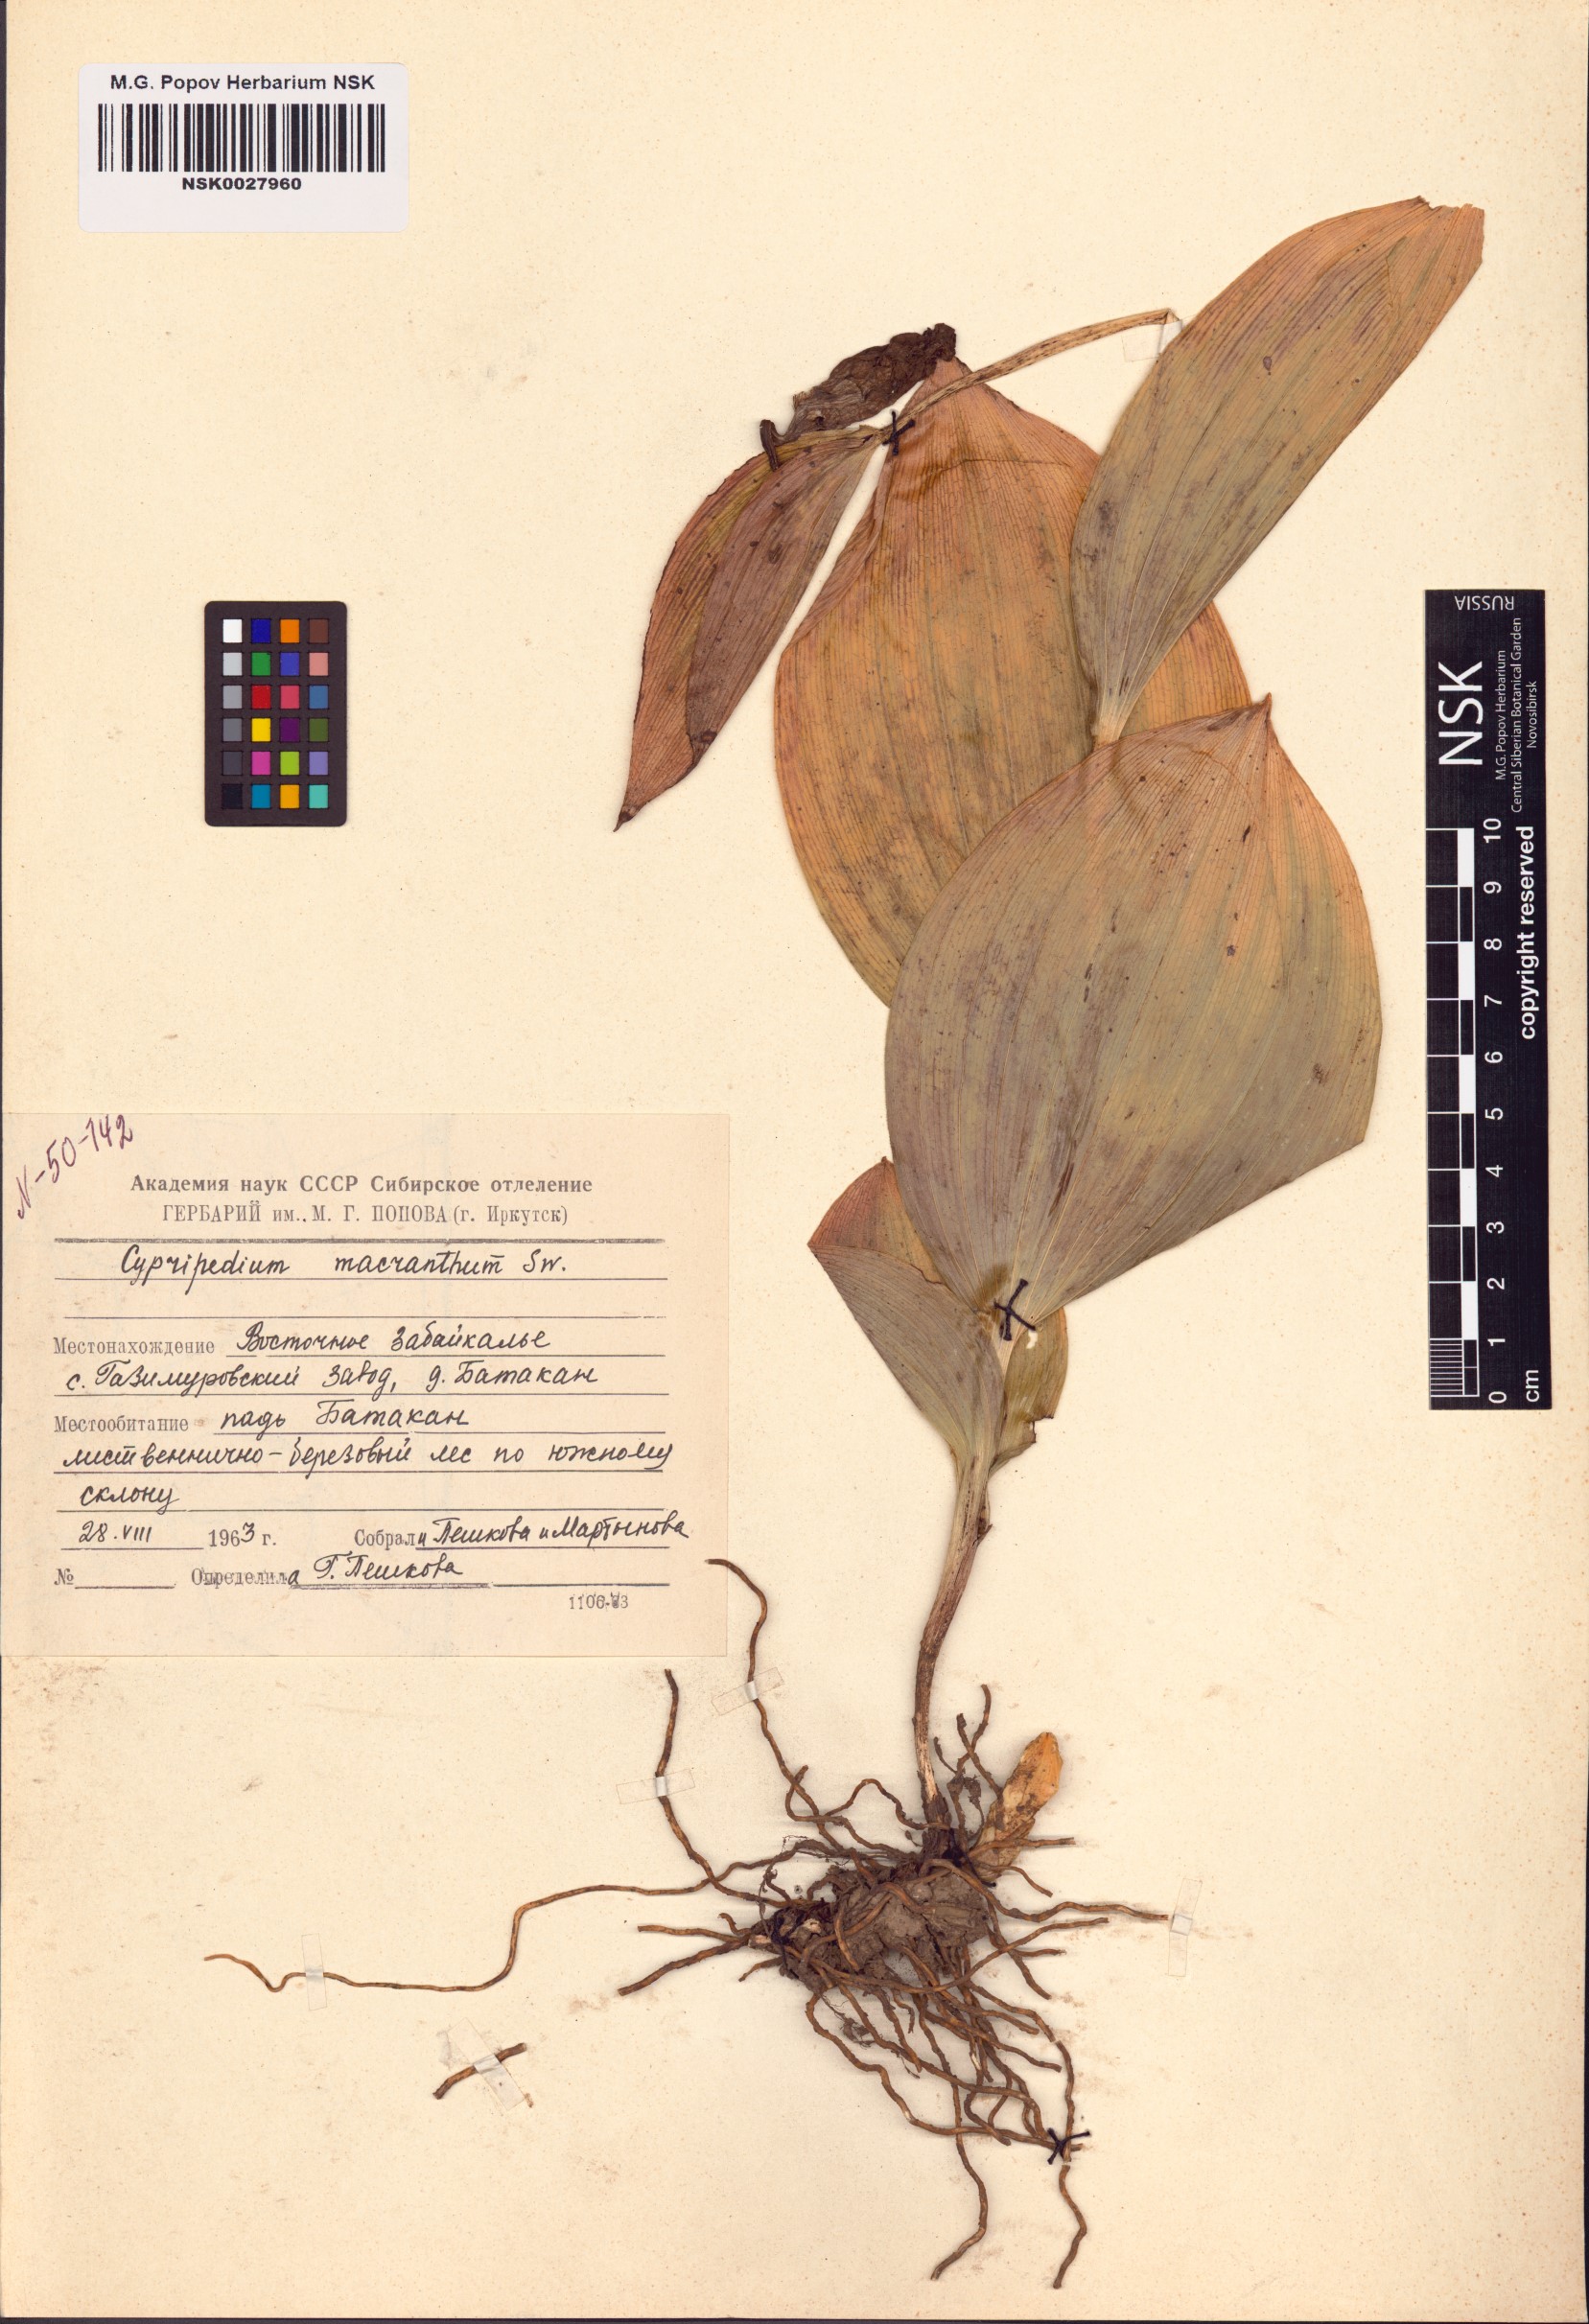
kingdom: Plantae
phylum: Tracheophyta
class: Liliopsida
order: Asparagales
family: Orchidaceae
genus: Cypripedium
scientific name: Cypripedium macranthos
